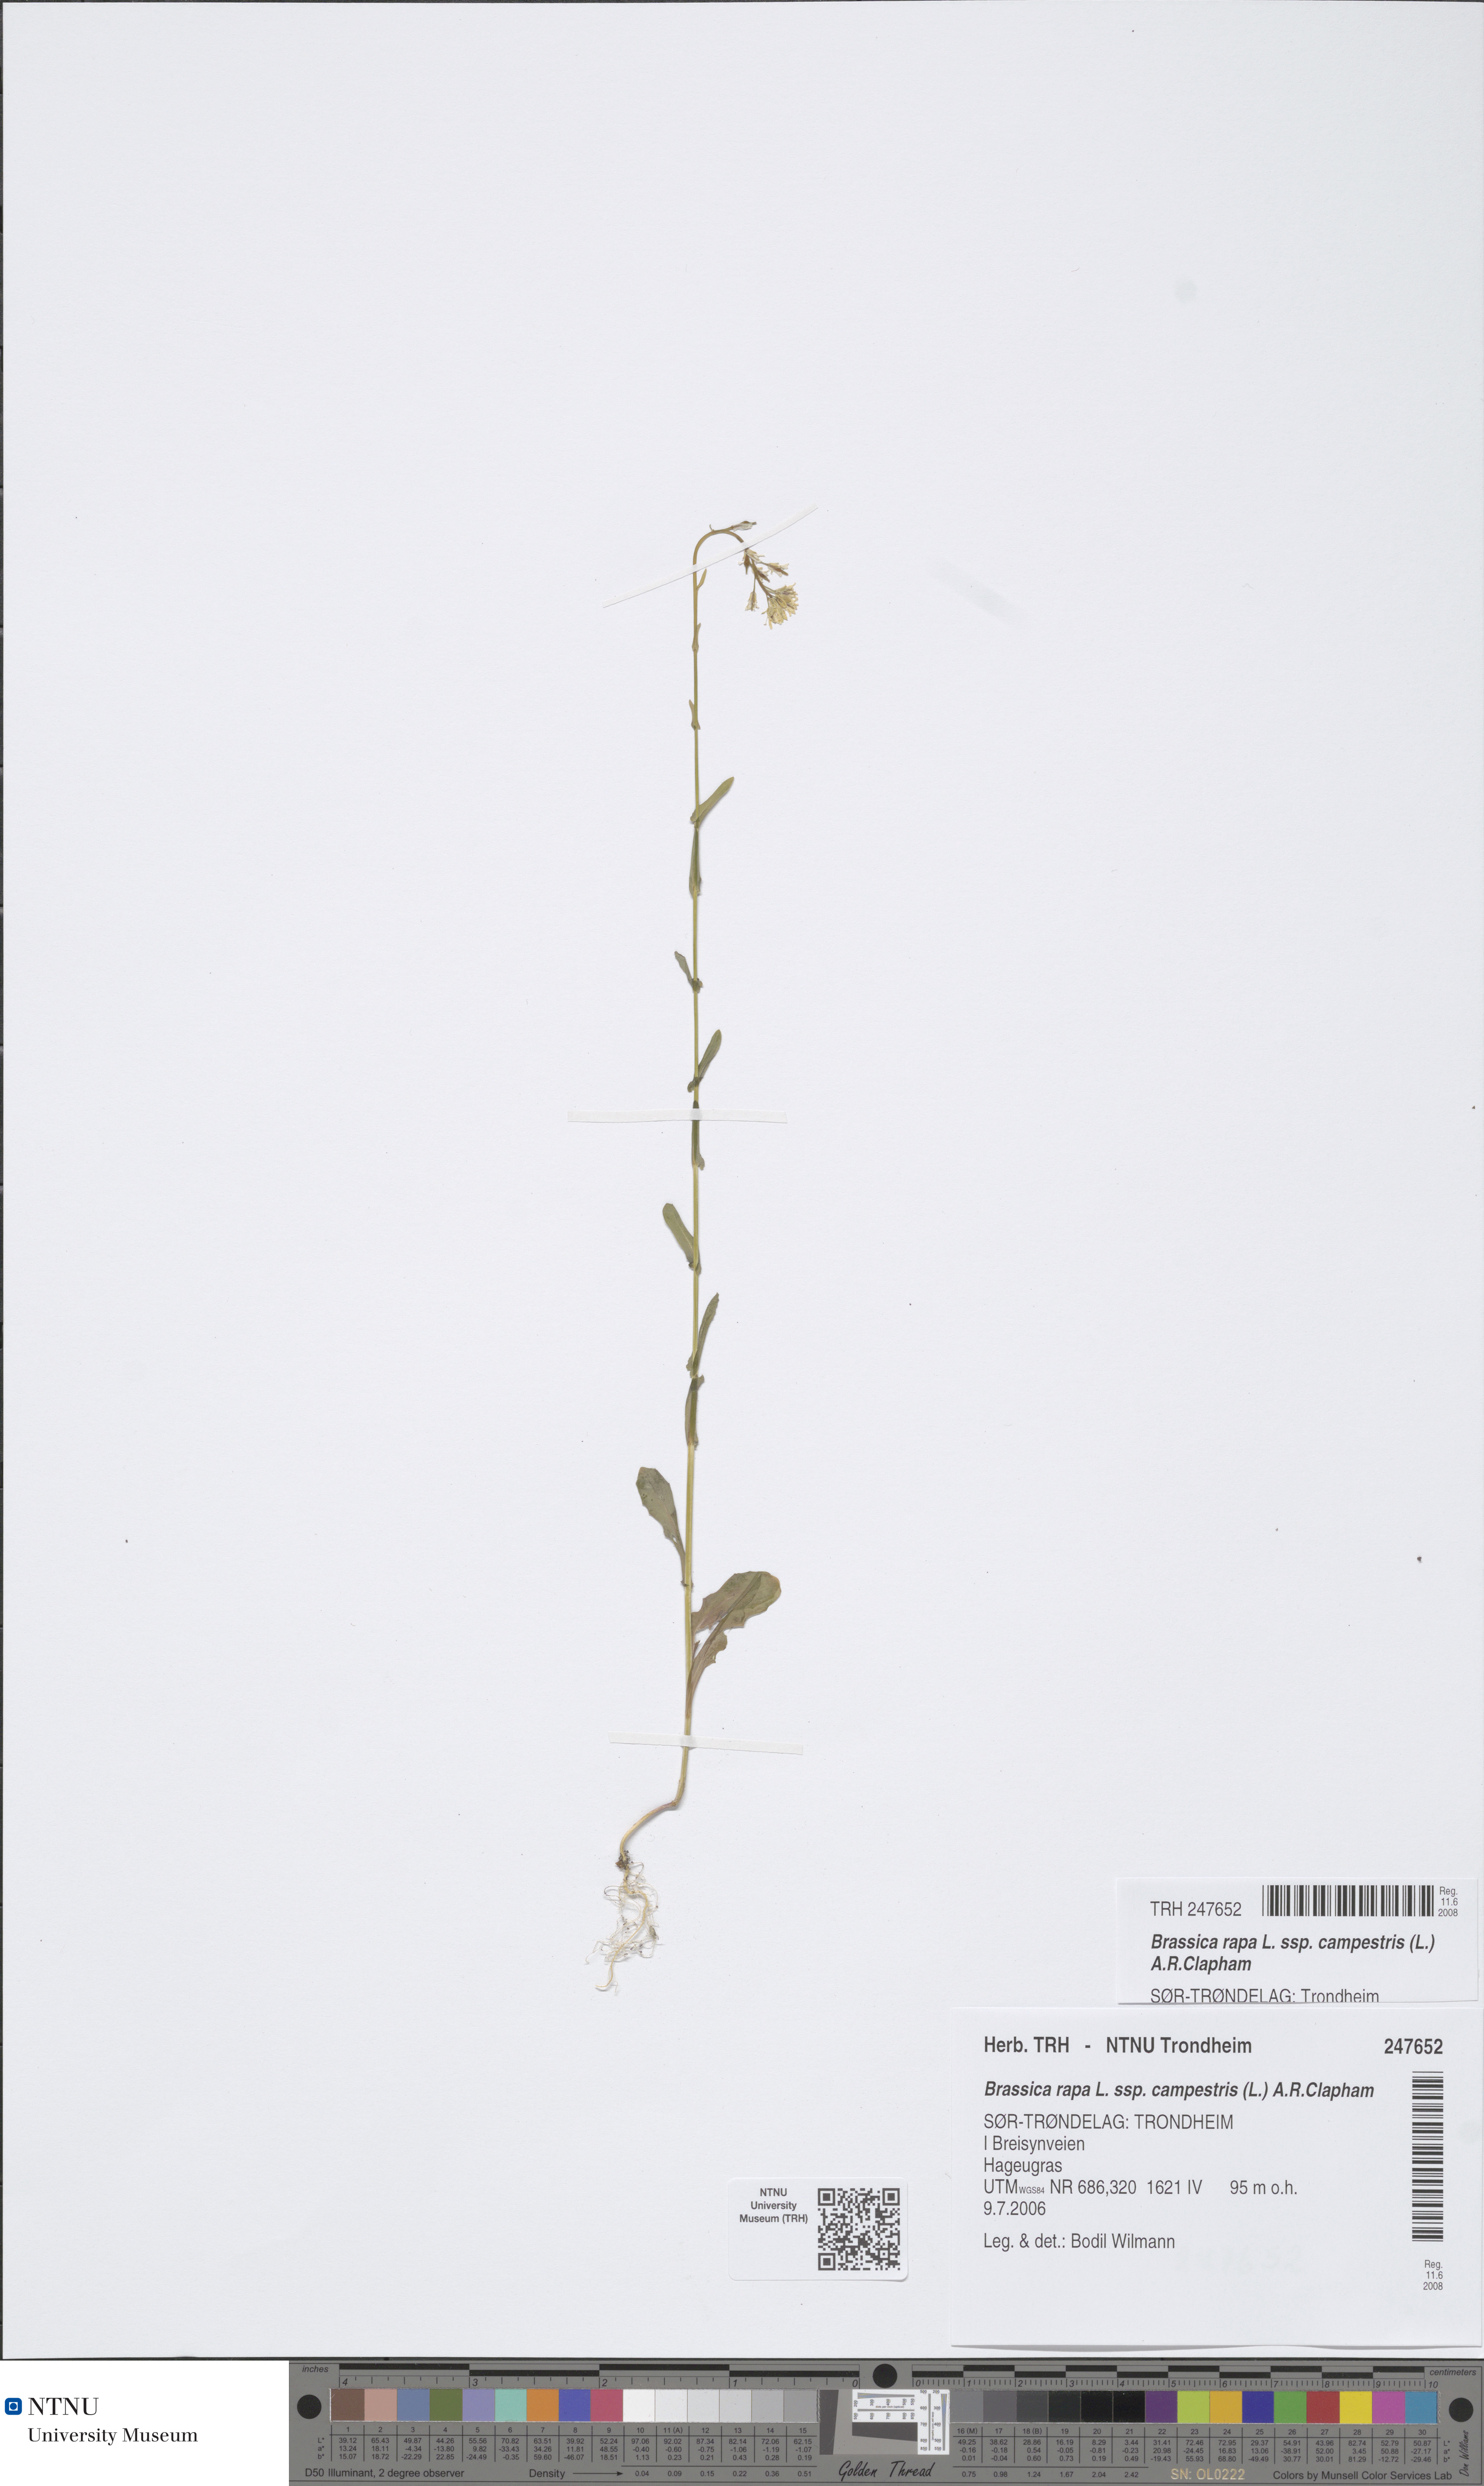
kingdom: Plantae
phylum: Tracheophyta
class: Magnoliopsida
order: Brassicales
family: Brassicaceae
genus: Brassica
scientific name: Brassica rapa
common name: Field mustard
